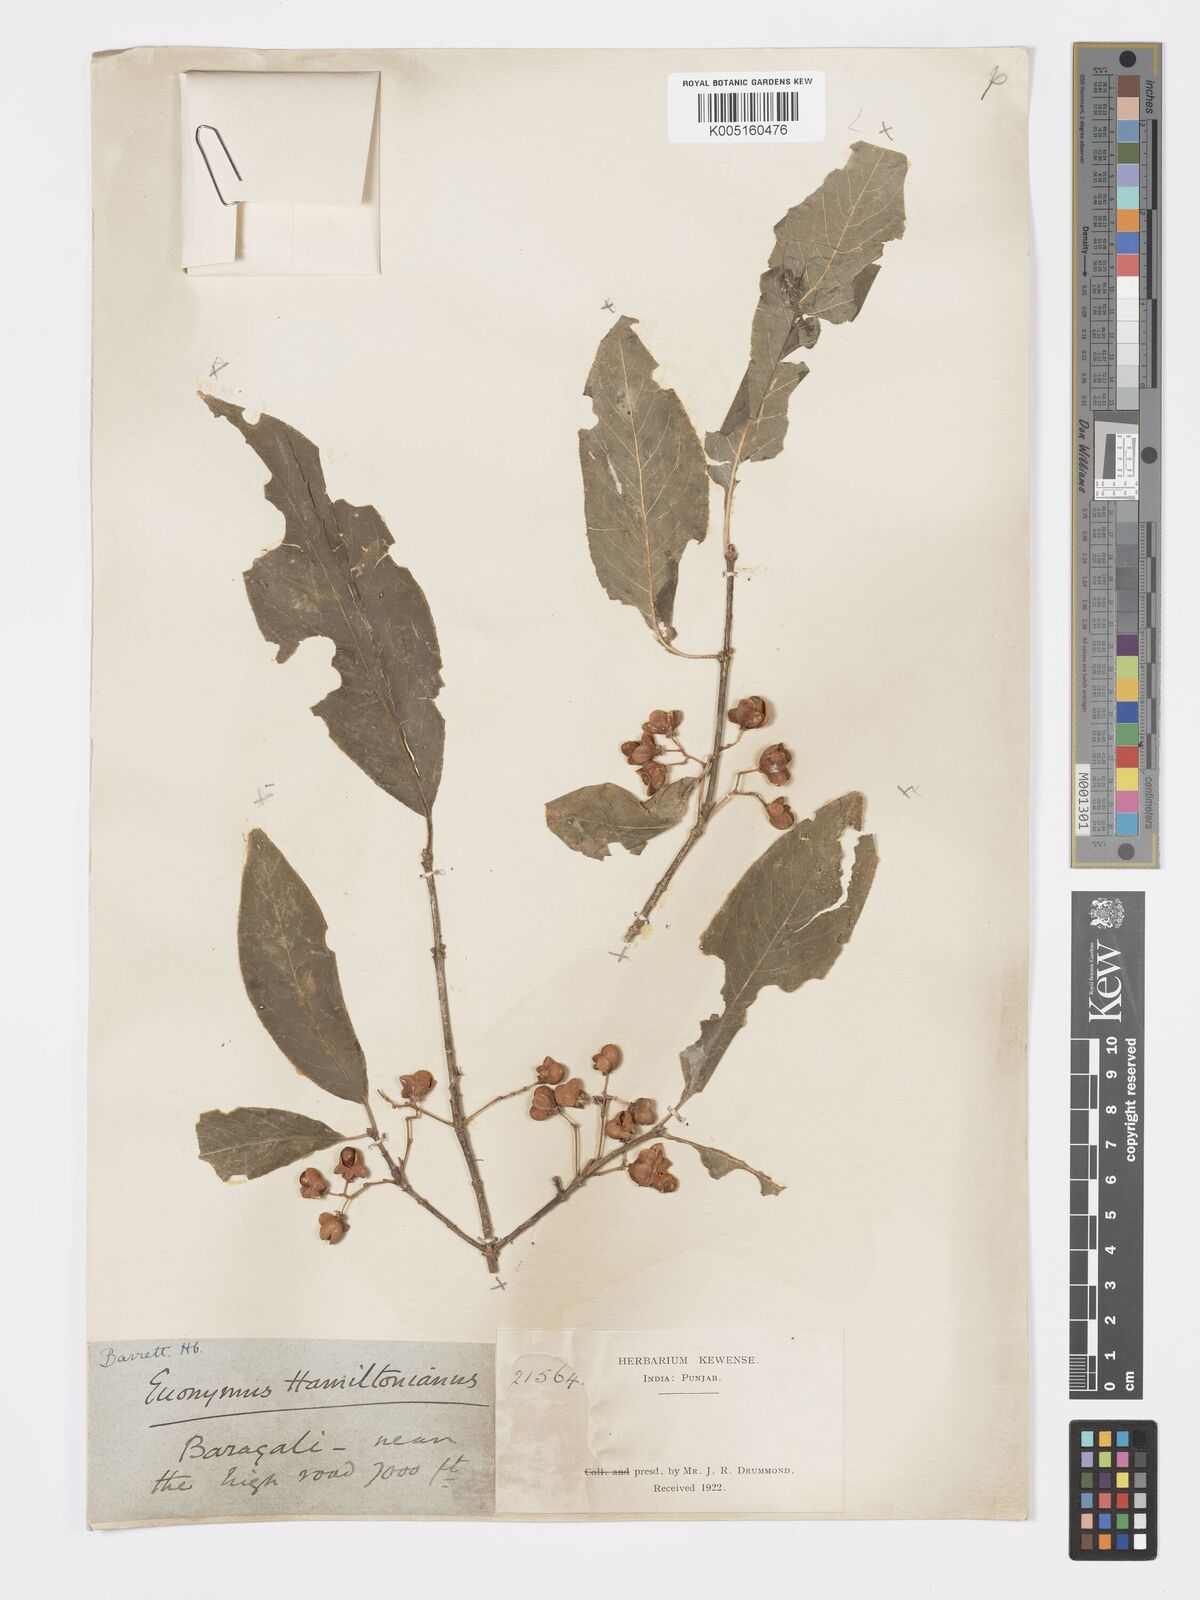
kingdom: Plantae
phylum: Tracheophyta
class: Magnoliopsida
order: Celastrales
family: Celastraceae
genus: Euonymus
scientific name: Euonymus
